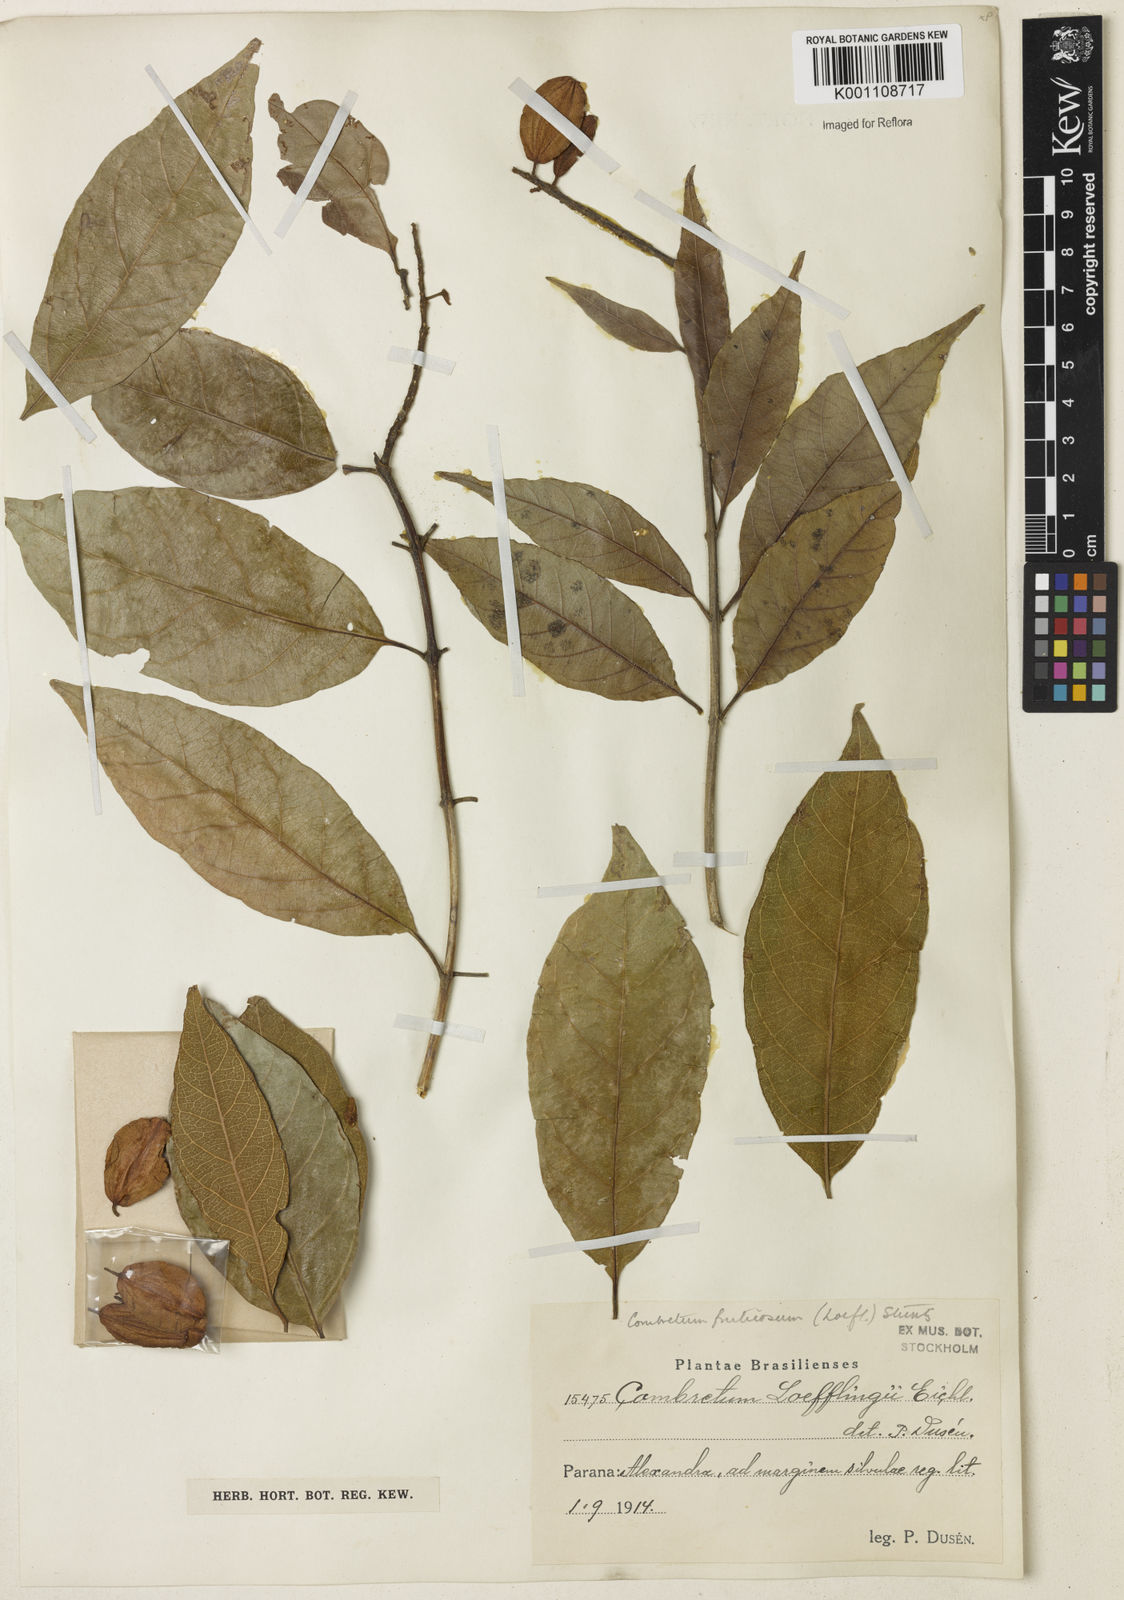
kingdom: Plantae
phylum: Tracheophyta
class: Magnoliopsida
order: Myrtales
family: Combretaceae
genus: Combretum
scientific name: Combretum fruticosum
